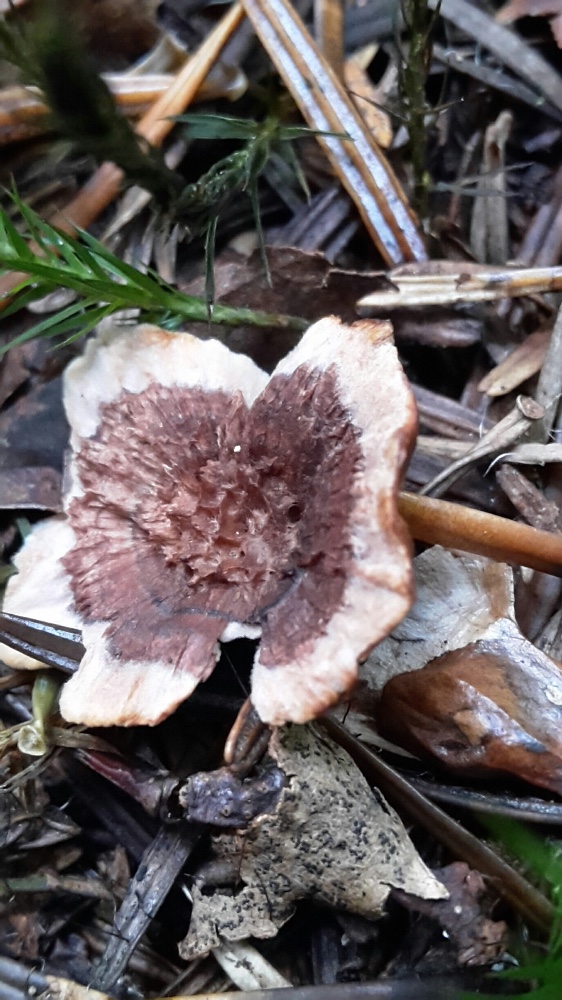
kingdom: Fungi
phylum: Basidiomycota
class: Agaricomycetes
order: Thelephorales
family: Bankeraceae
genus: Hydnellum
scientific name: Hydnellum concrescens
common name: bæltet korkpigsvamp
